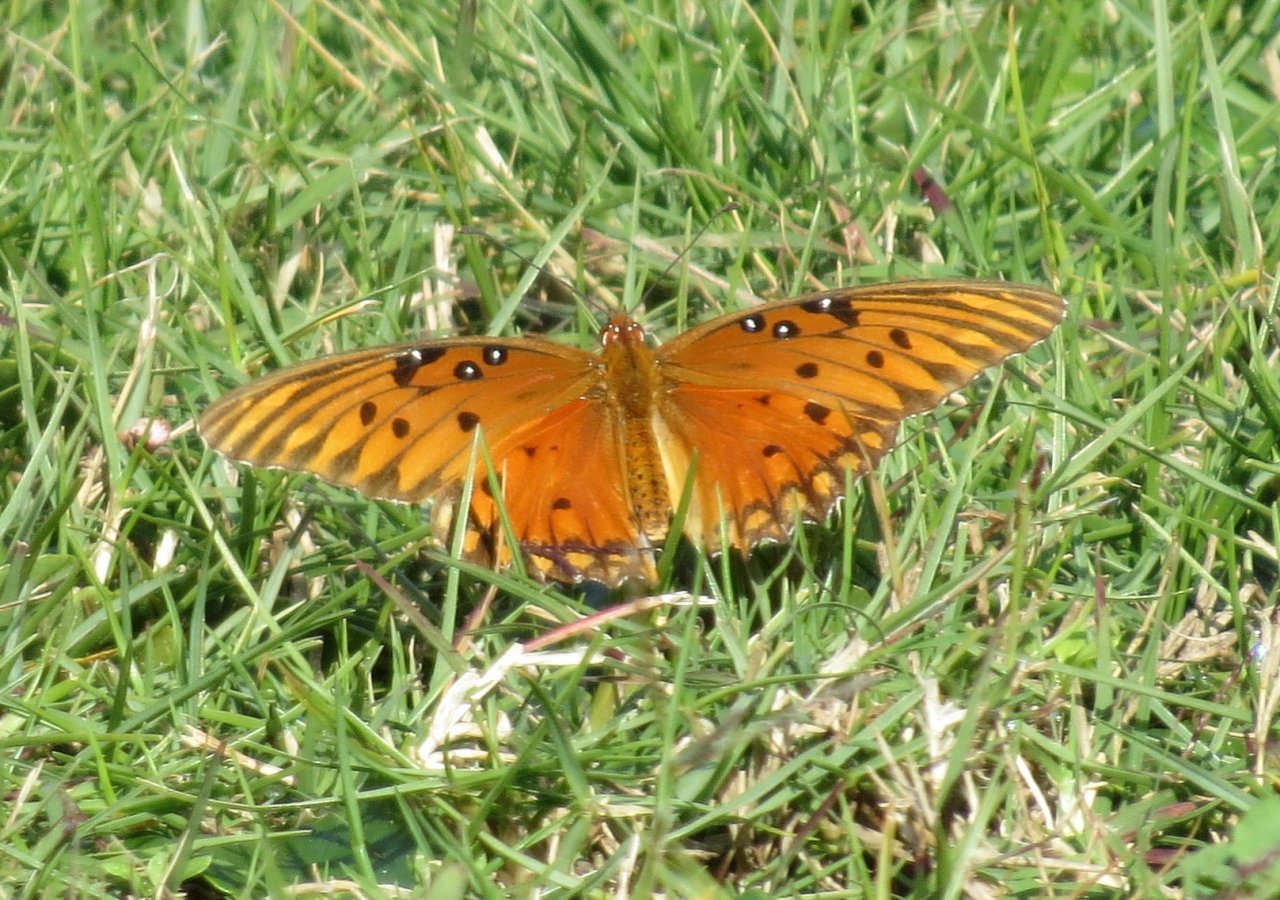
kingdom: Animalia
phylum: Arthropoda
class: Insecta
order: Lepidoptera
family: Nymphalidae
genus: Dione
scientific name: Dione vanillae
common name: Gulf Fritillary
